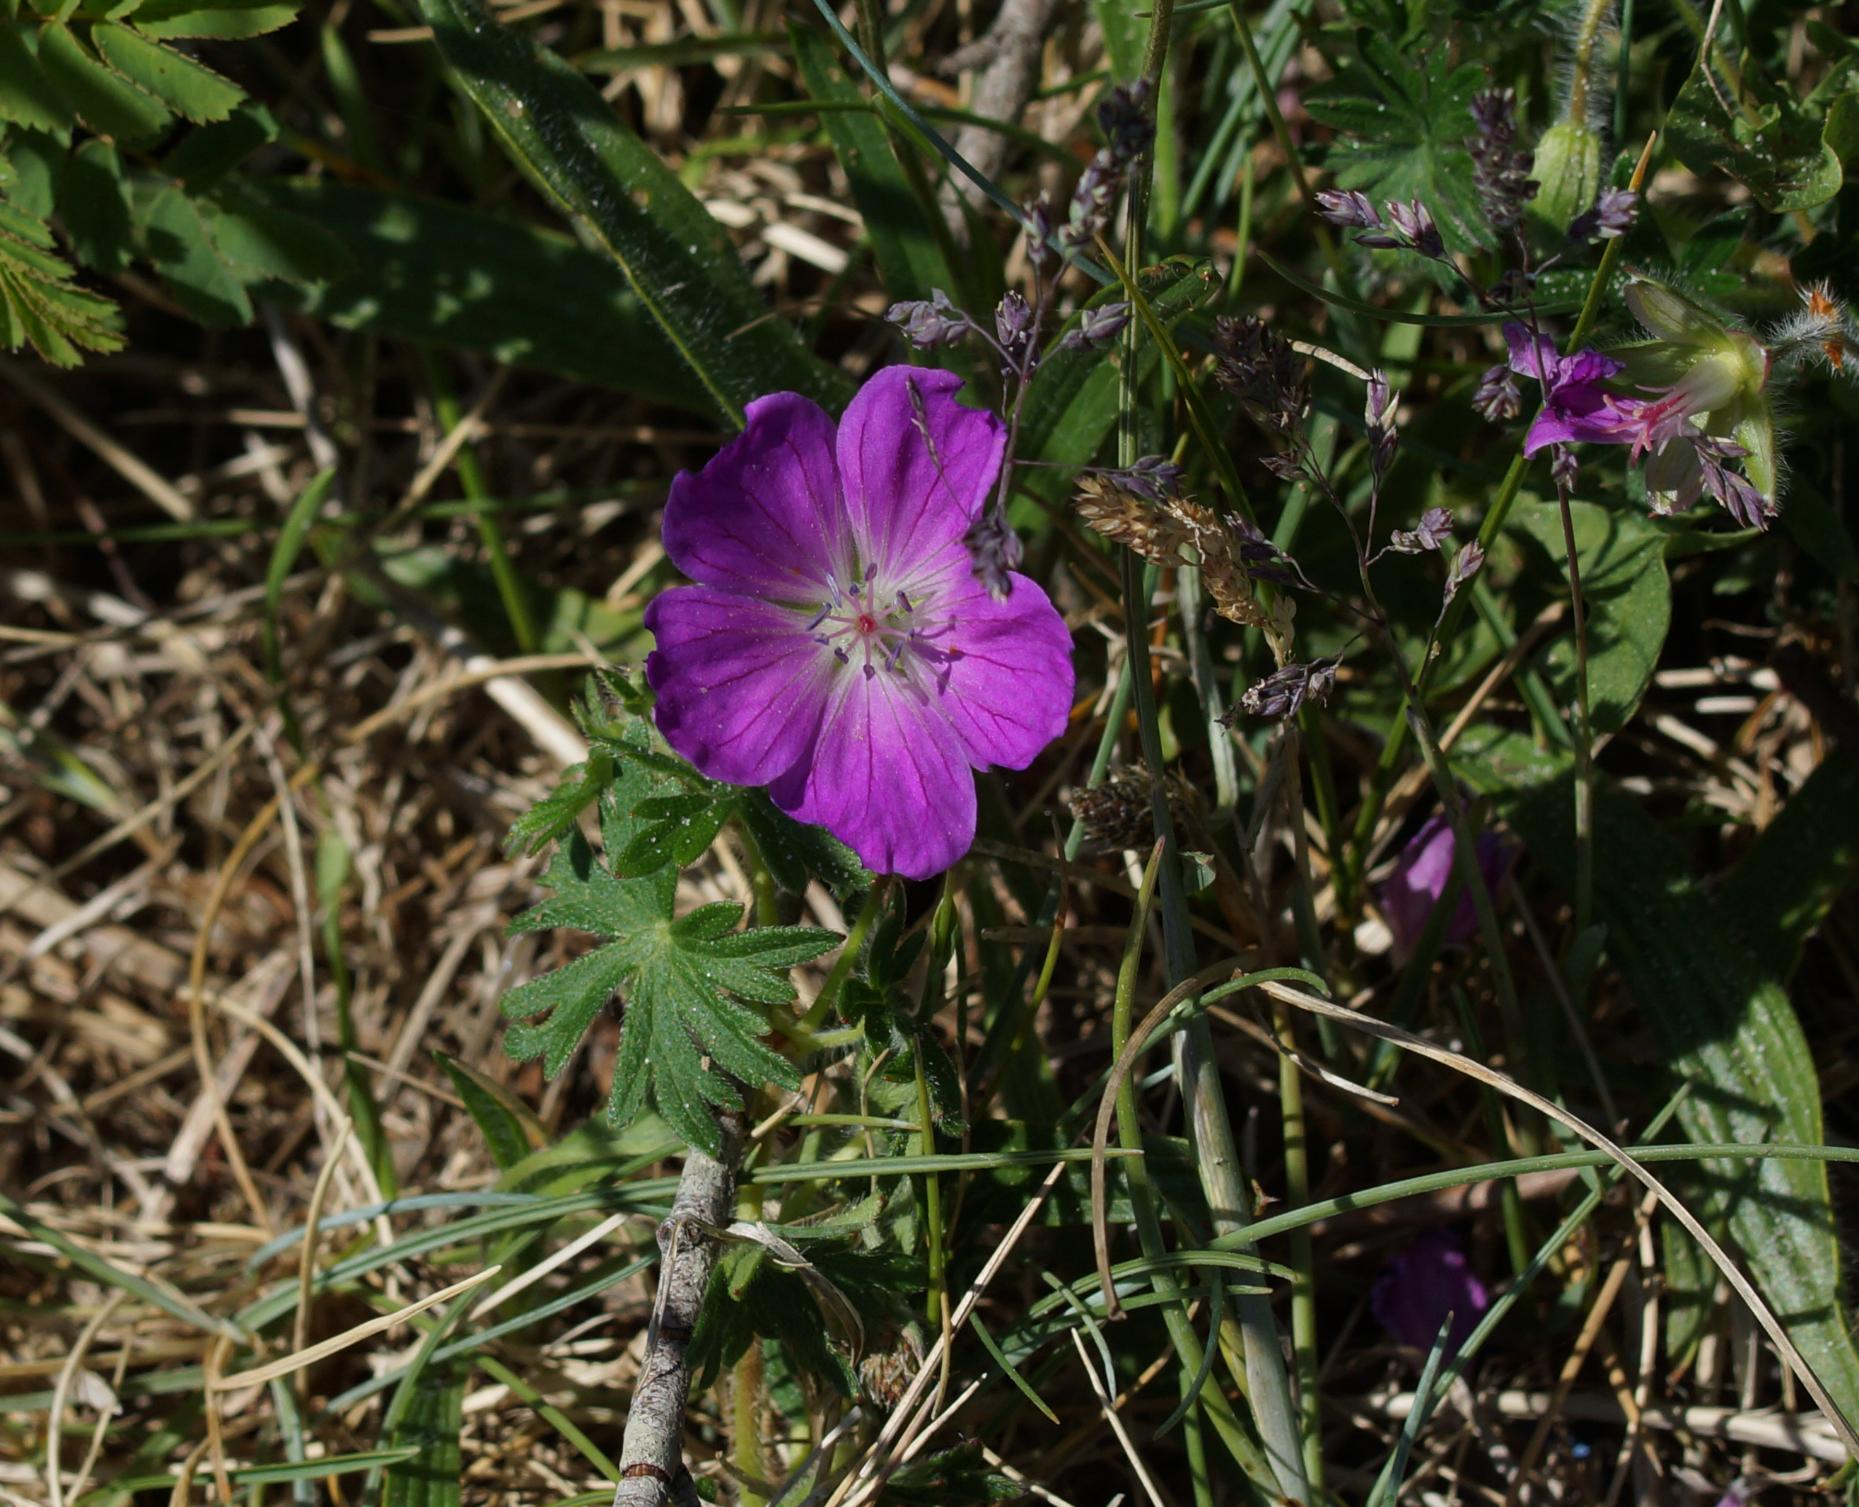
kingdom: Plantae
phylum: Tracheophyta
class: Magnoliopsida
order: Geraniales
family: Geraniaceae
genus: Geranium
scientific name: Geranium sanguineum
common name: Blodrød storkenæb
